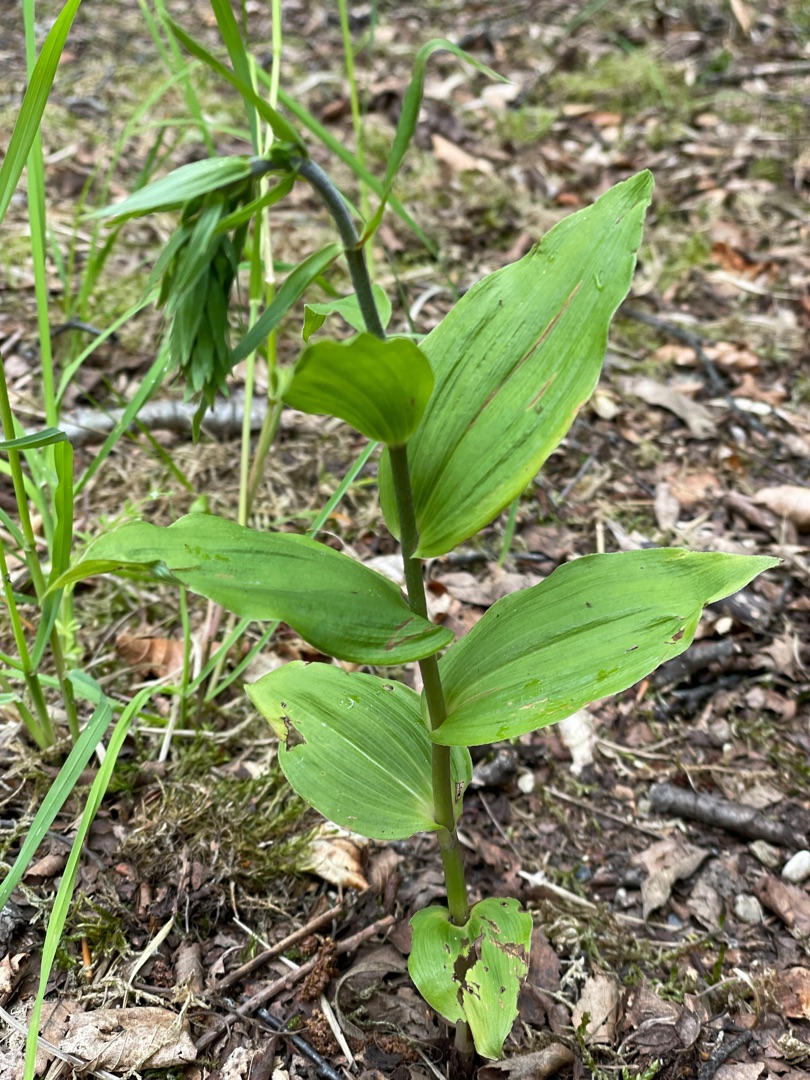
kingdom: Plantae
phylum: Tracheophyta
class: Liliopsida
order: Asparagales
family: Orchidaceae
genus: Epipactis
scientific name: Epipactis helleborine
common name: Skov-hullæbe
